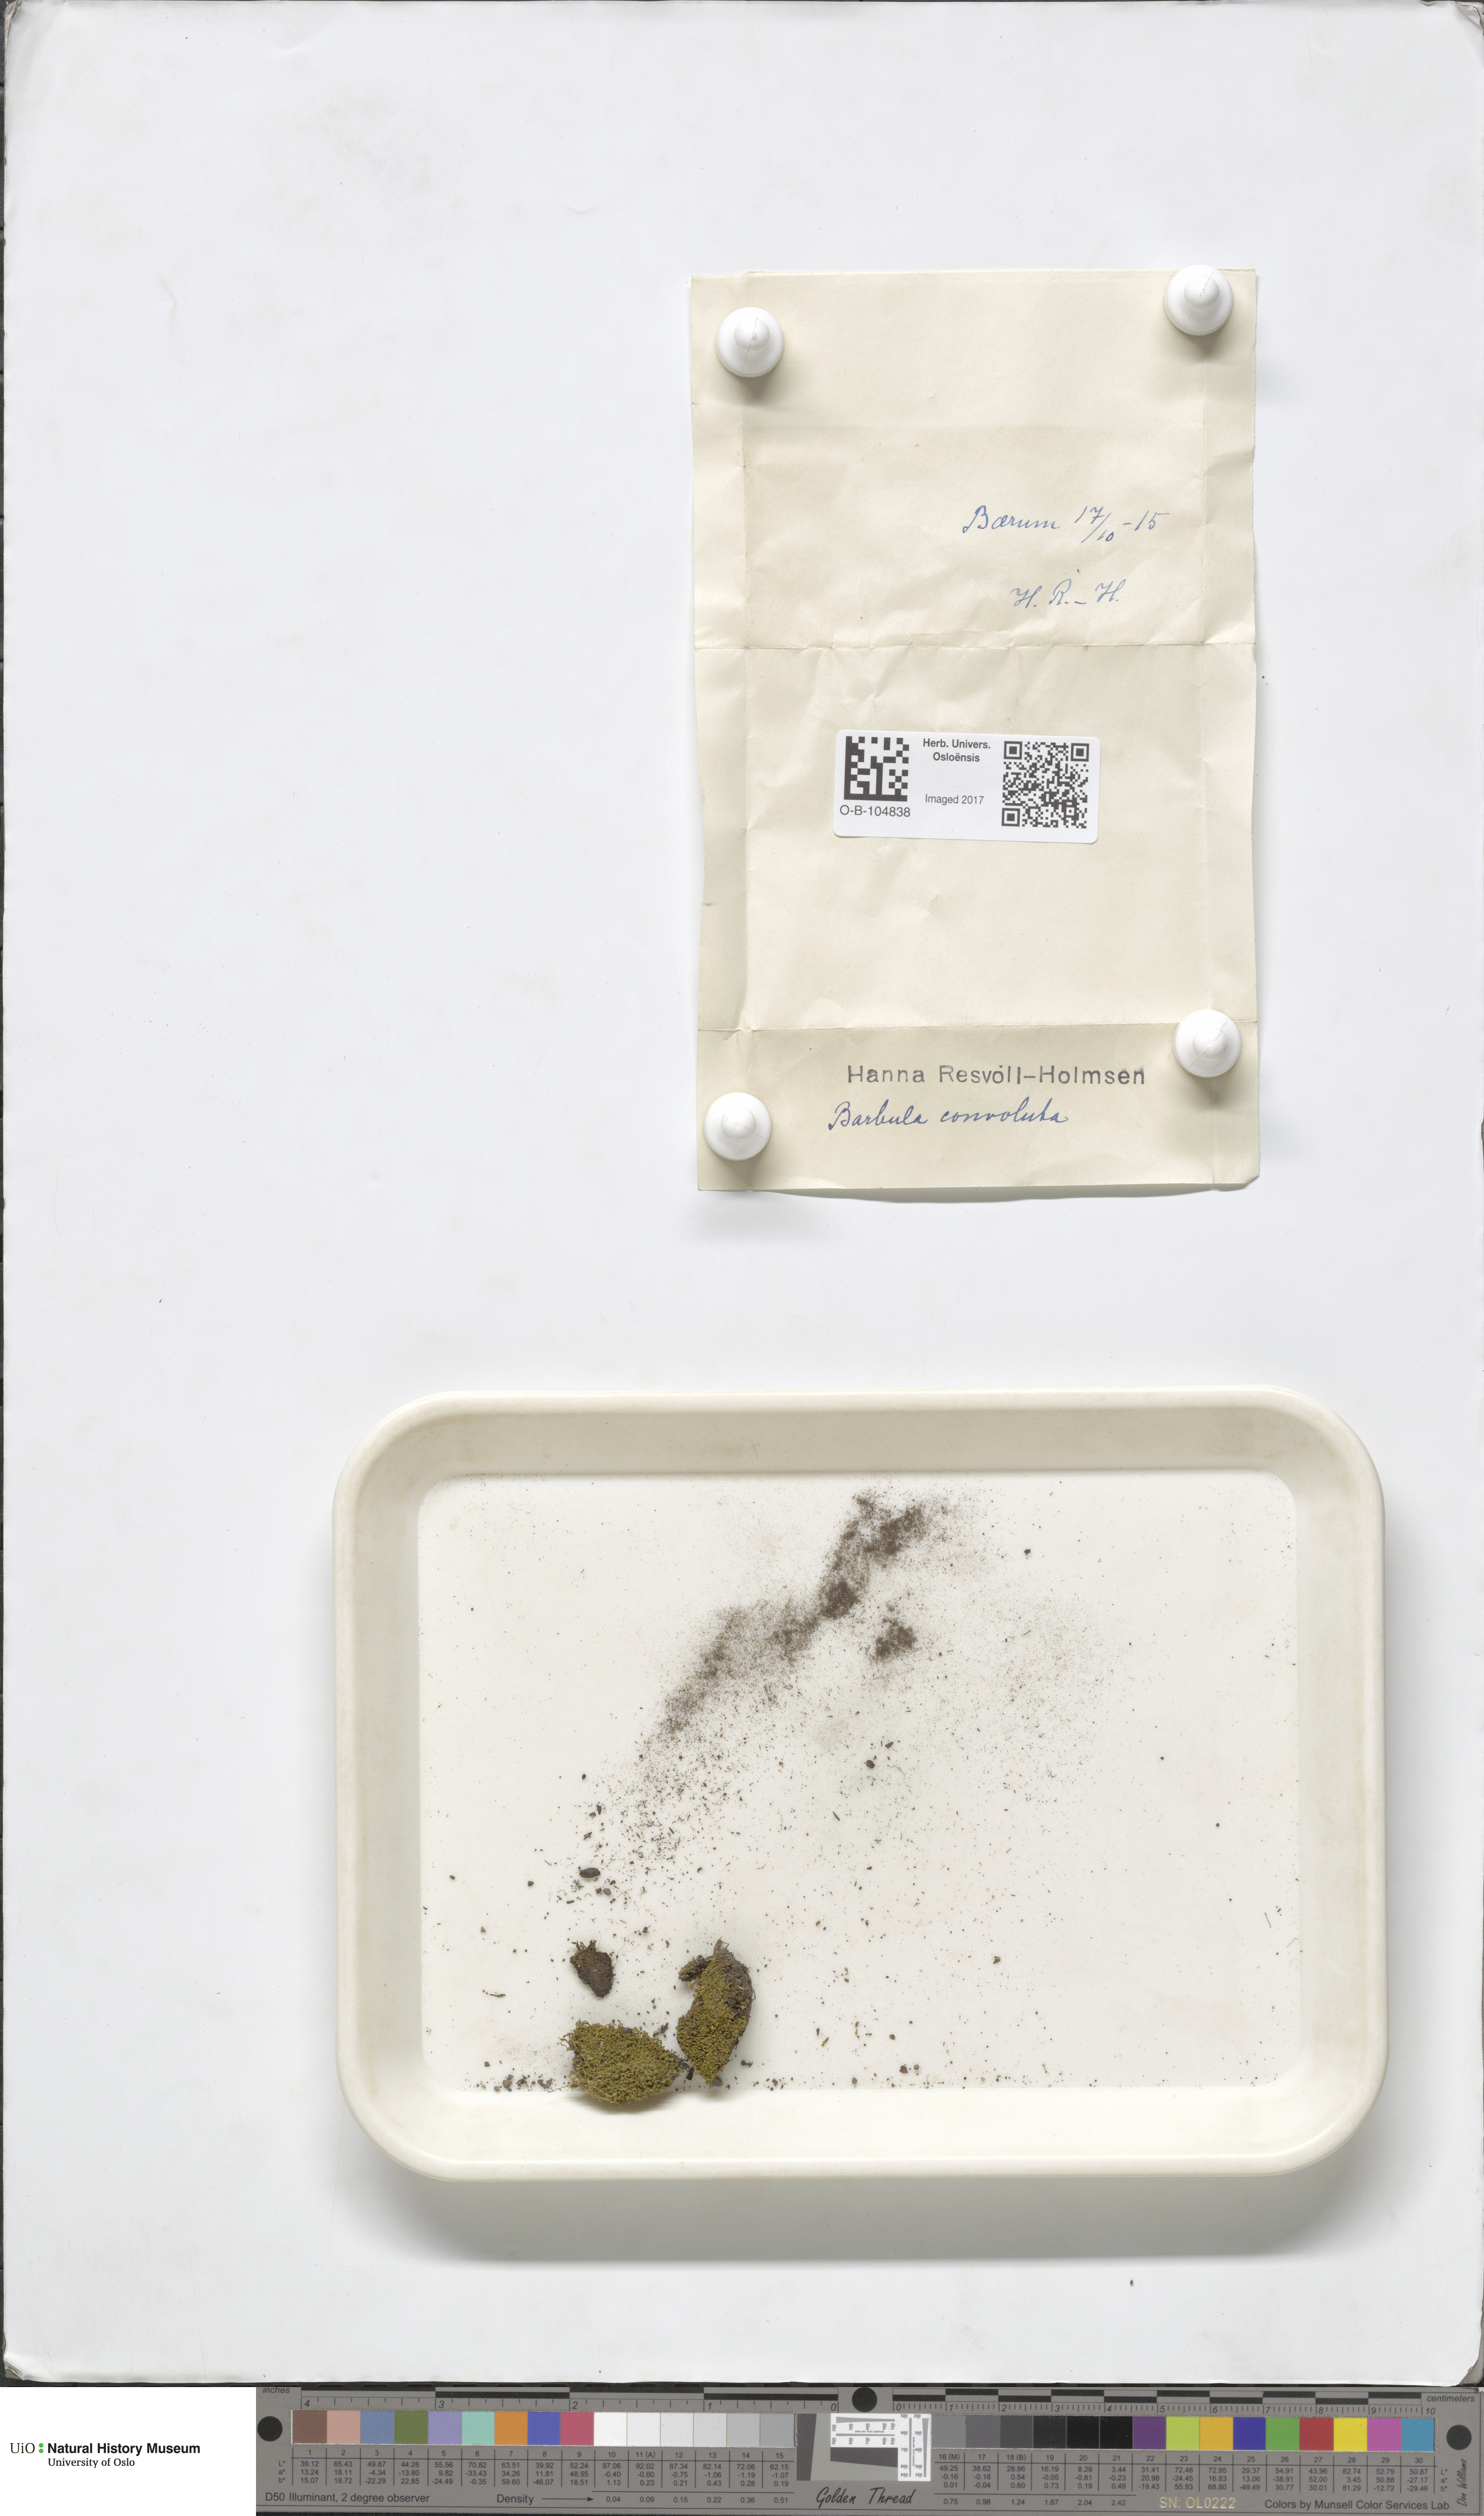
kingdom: Plantae
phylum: Bryophyta
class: Bryopsida
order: Pottiales
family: Pottiaceae
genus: Streblotrichum
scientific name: Streblotrichum convolutum
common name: Lesser bird's-claw beard-moss
